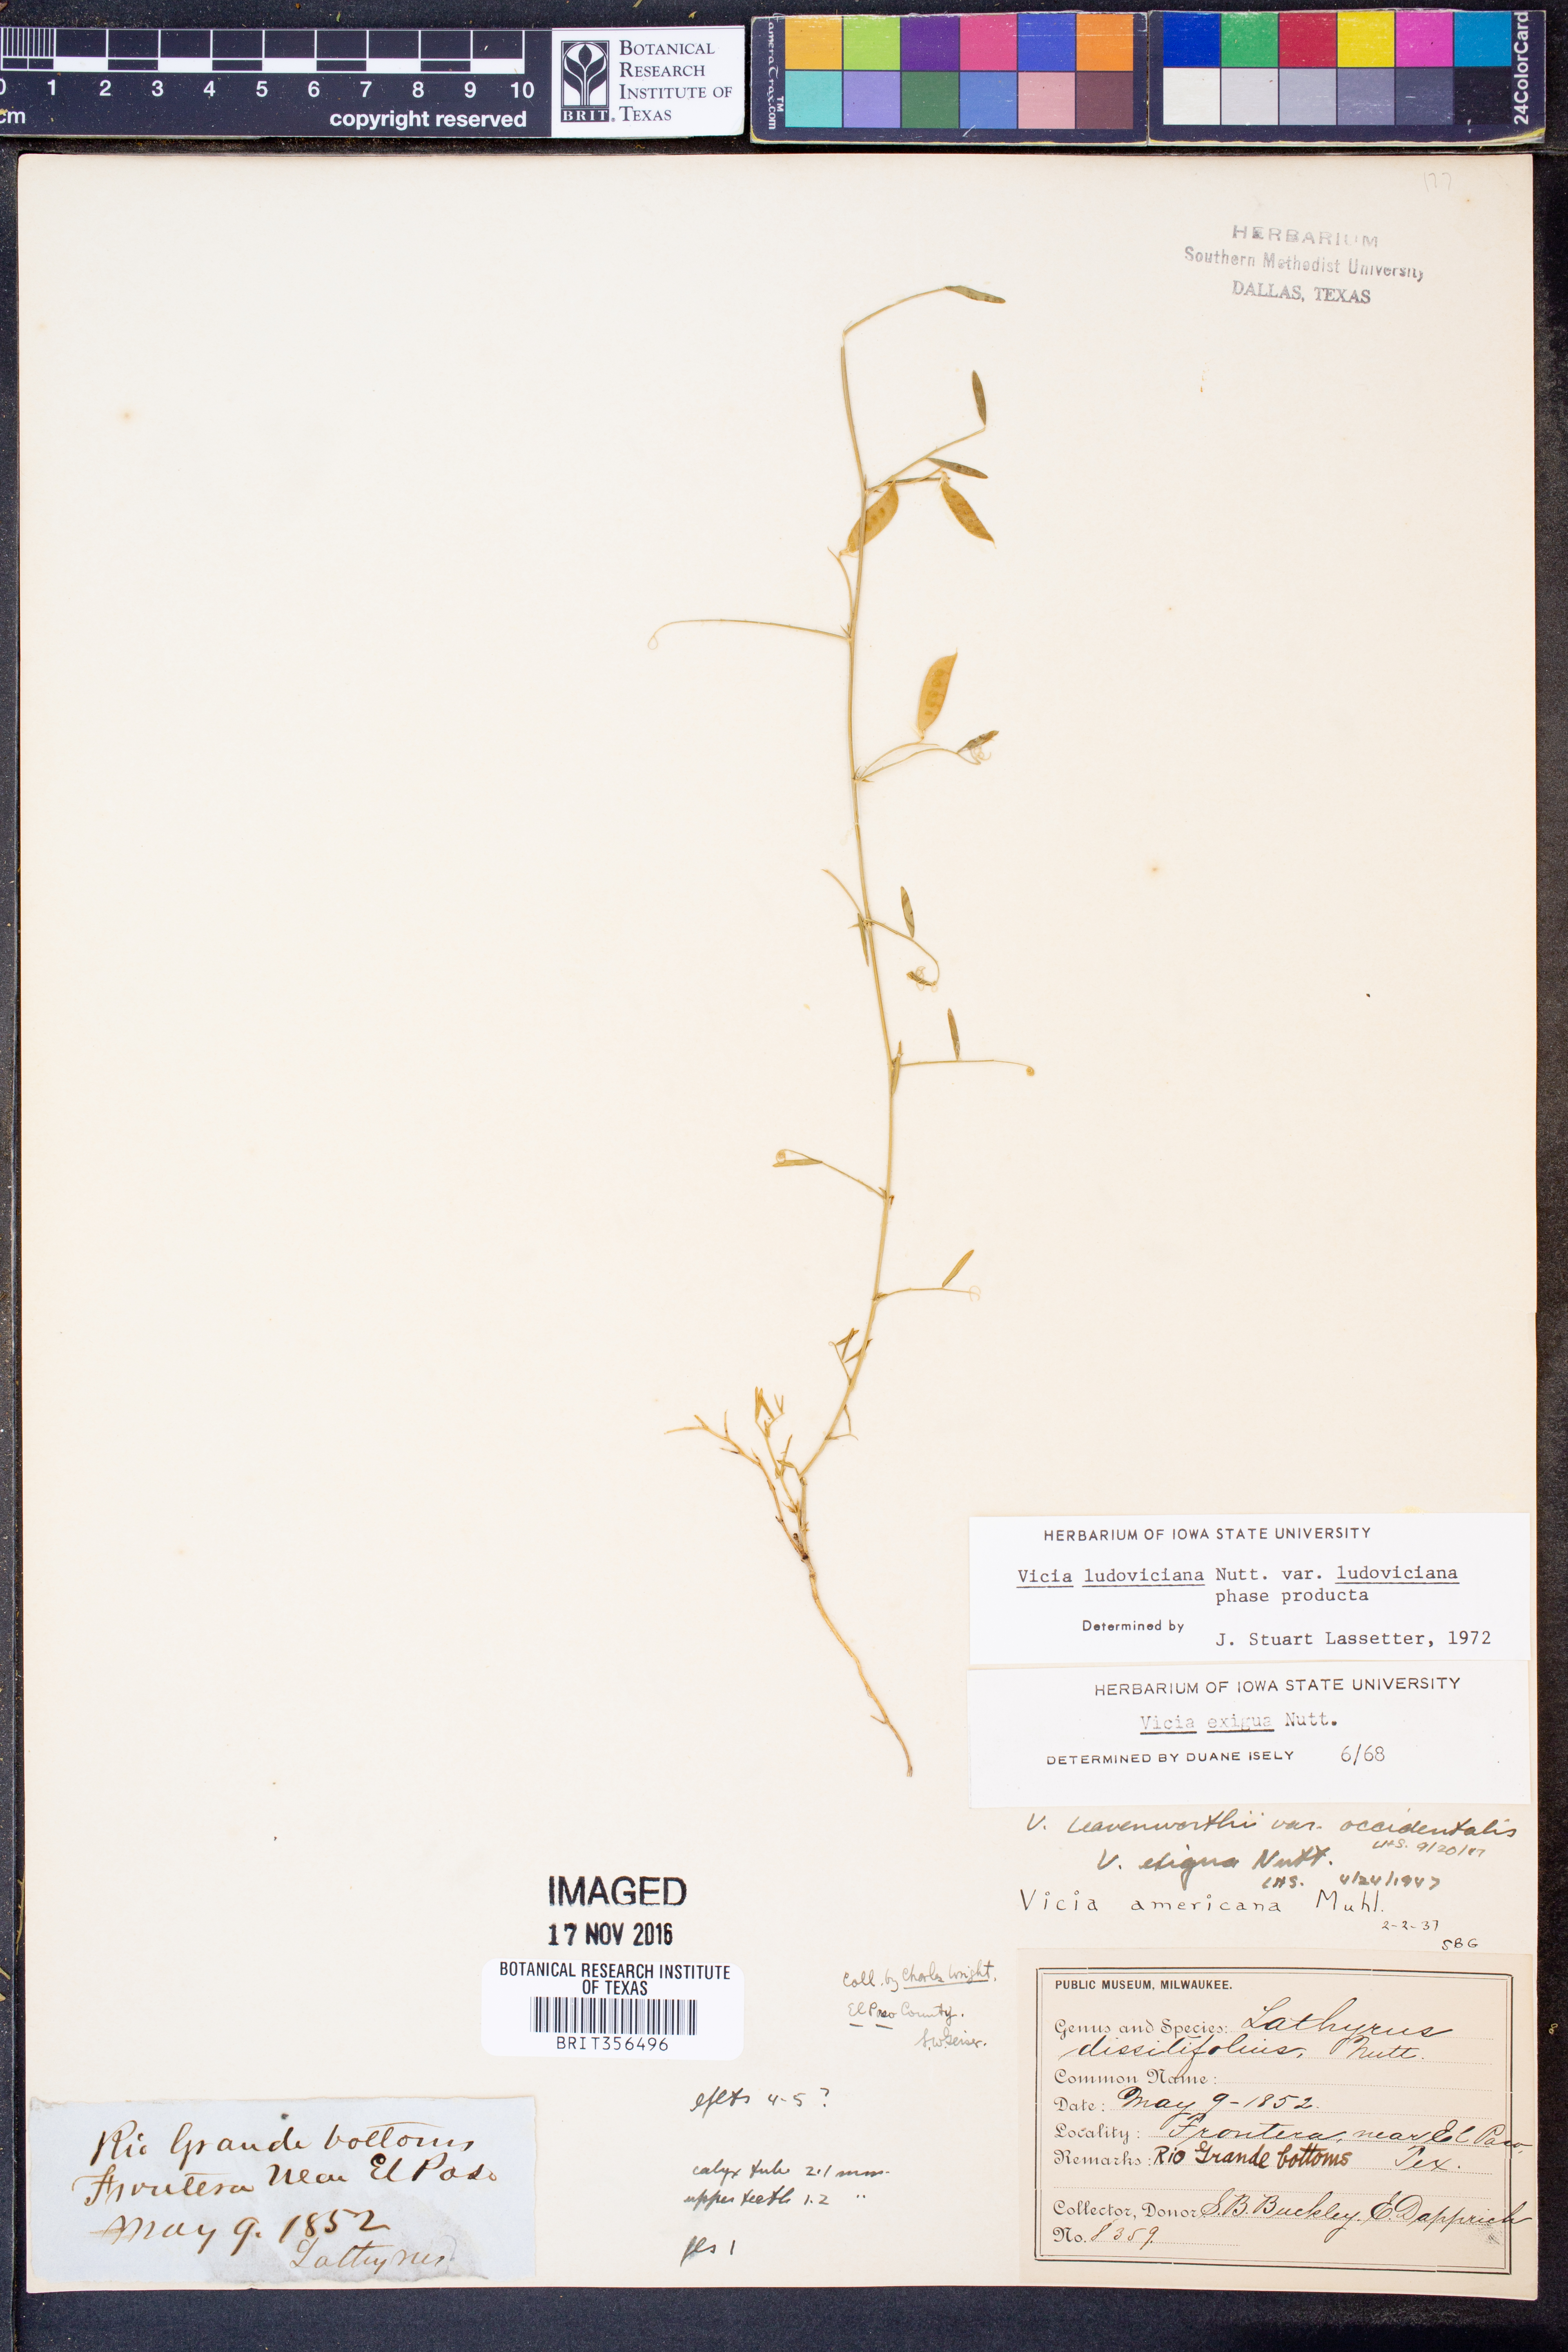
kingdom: Plantae
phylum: Tracheophyta
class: Magnoliopsida
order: Fabales
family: Fabaceae
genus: Vicia
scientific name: Vicia ludoviciana
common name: Louisiana vetch
